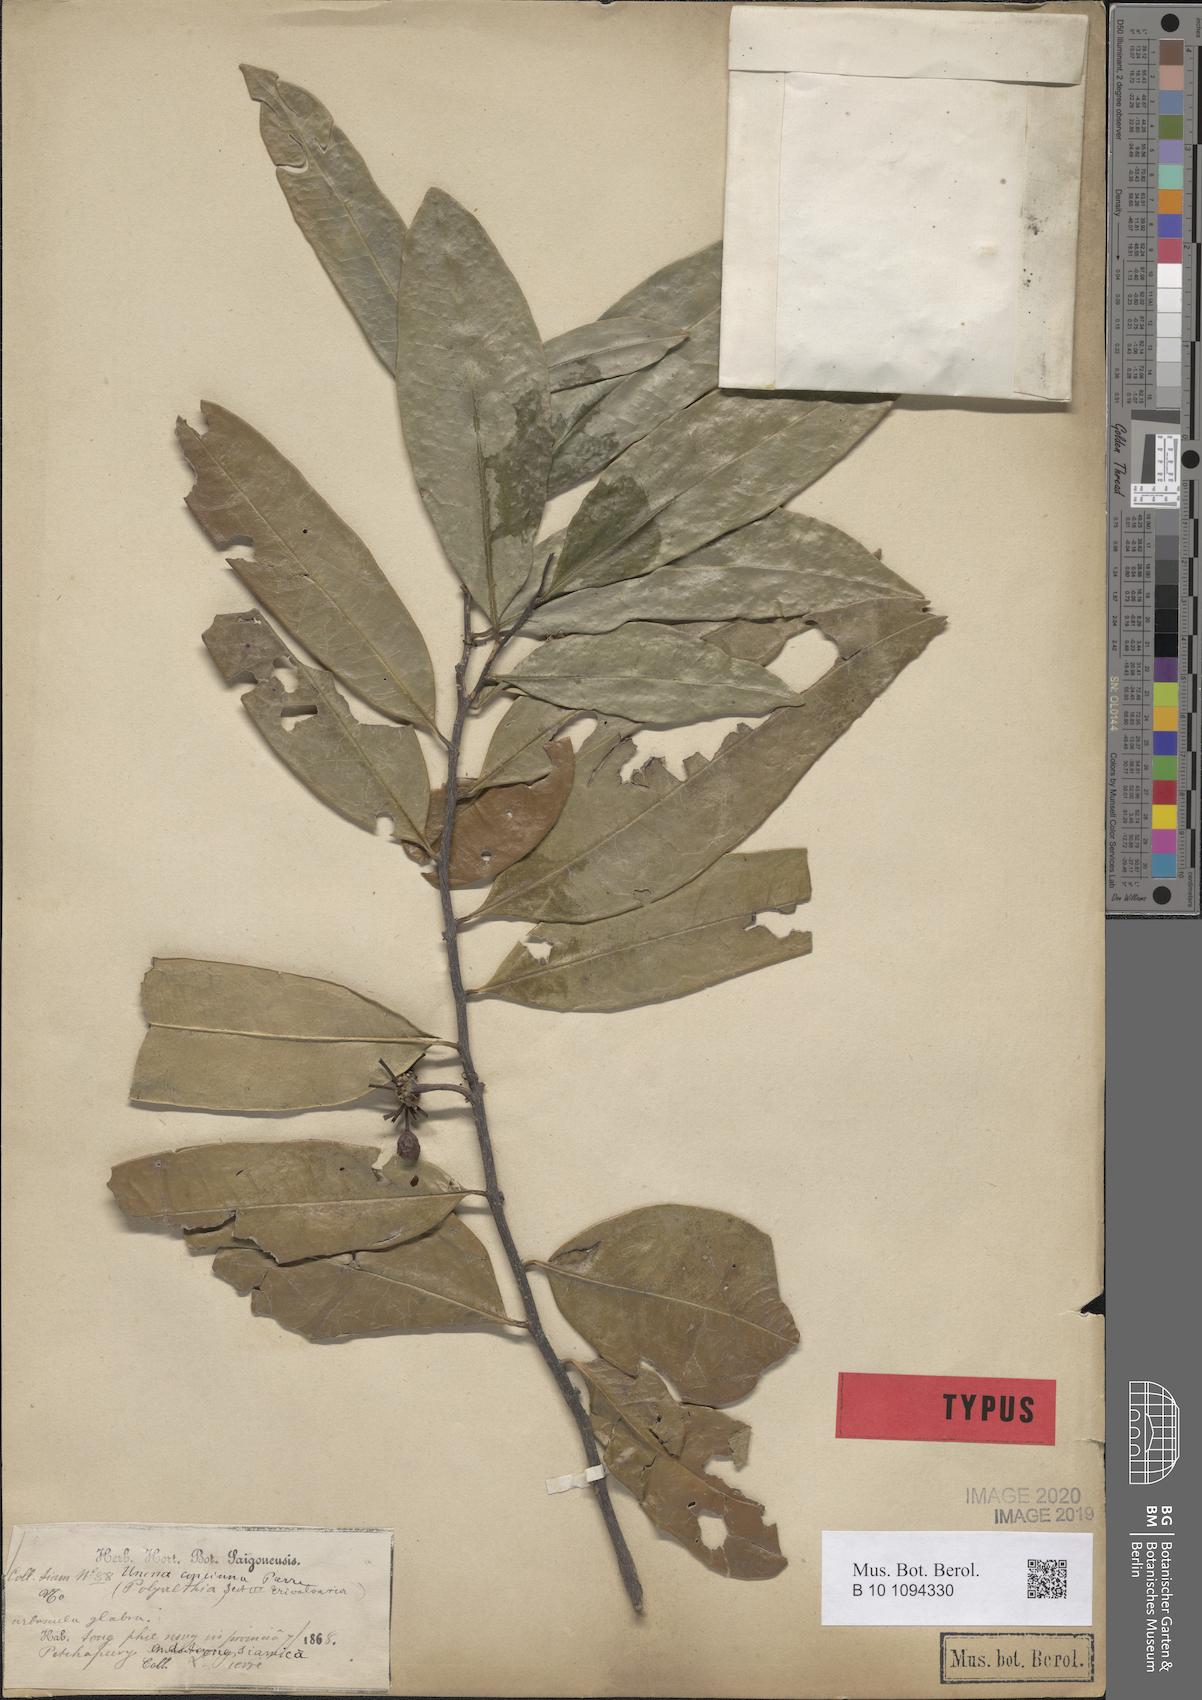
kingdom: Plantae
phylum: Tracheophyta
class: Magnoliopsida
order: Magnoliales
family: Annonaceae
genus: Marsypopetalum
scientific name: Marsypopetalum modestum
